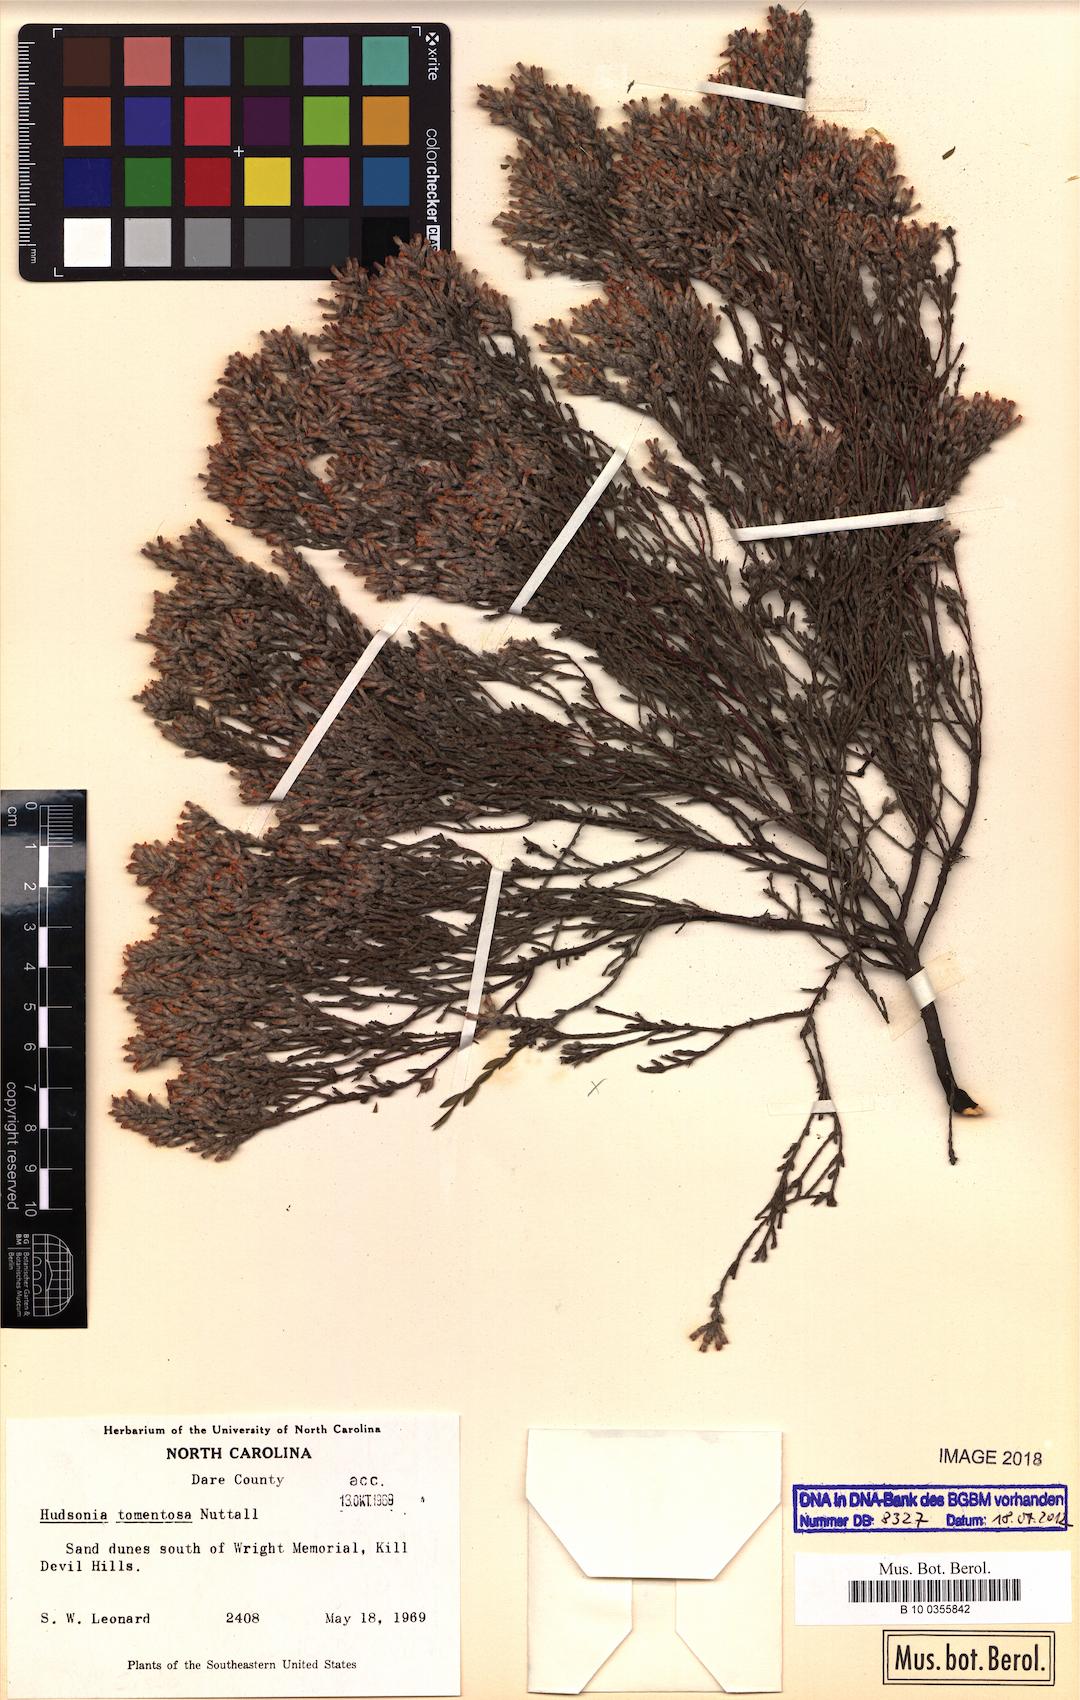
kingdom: Plantae
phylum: Tracheophyta
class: Magnoliopsida
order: Malvales
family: Cistaceae
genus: Hudsonia
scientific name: Hudsonia tomentosa
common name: Beach-heath
